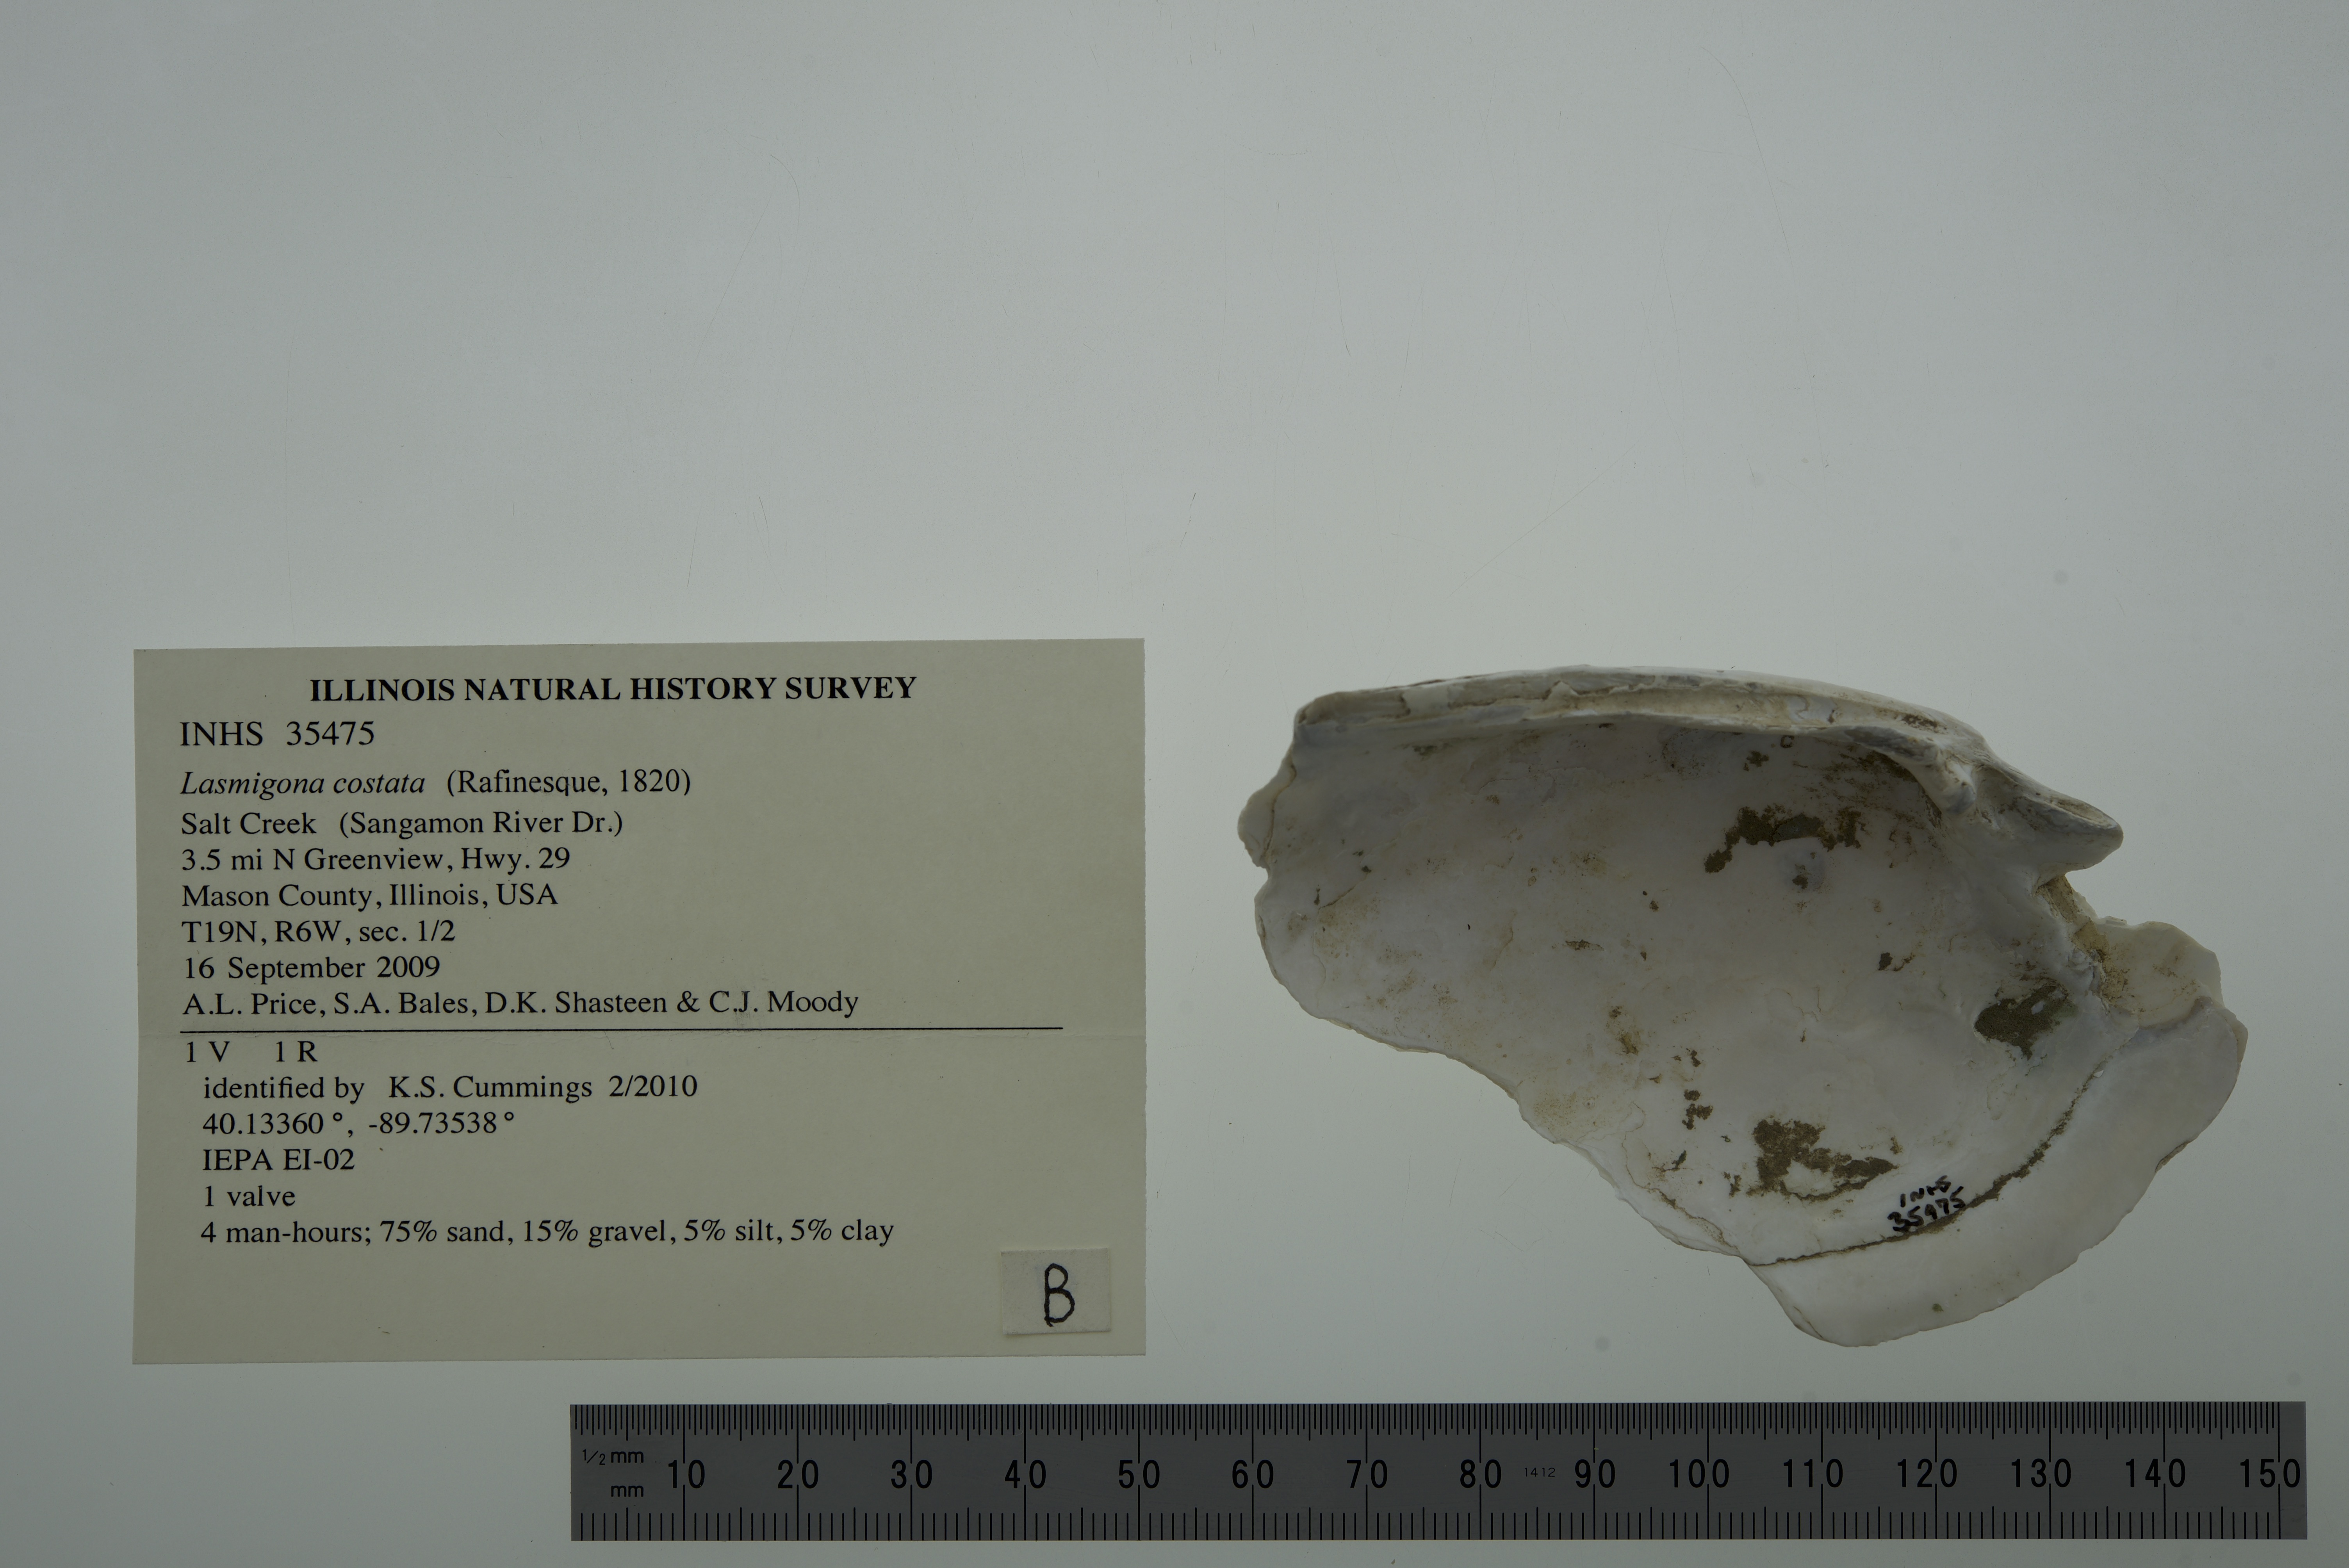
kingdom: Animalia
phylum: Mollusca
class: Bivalvia
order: Unionida
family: Unionidae
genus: Lasmigona
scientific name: Lasmigona costata
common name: Flutedshell
